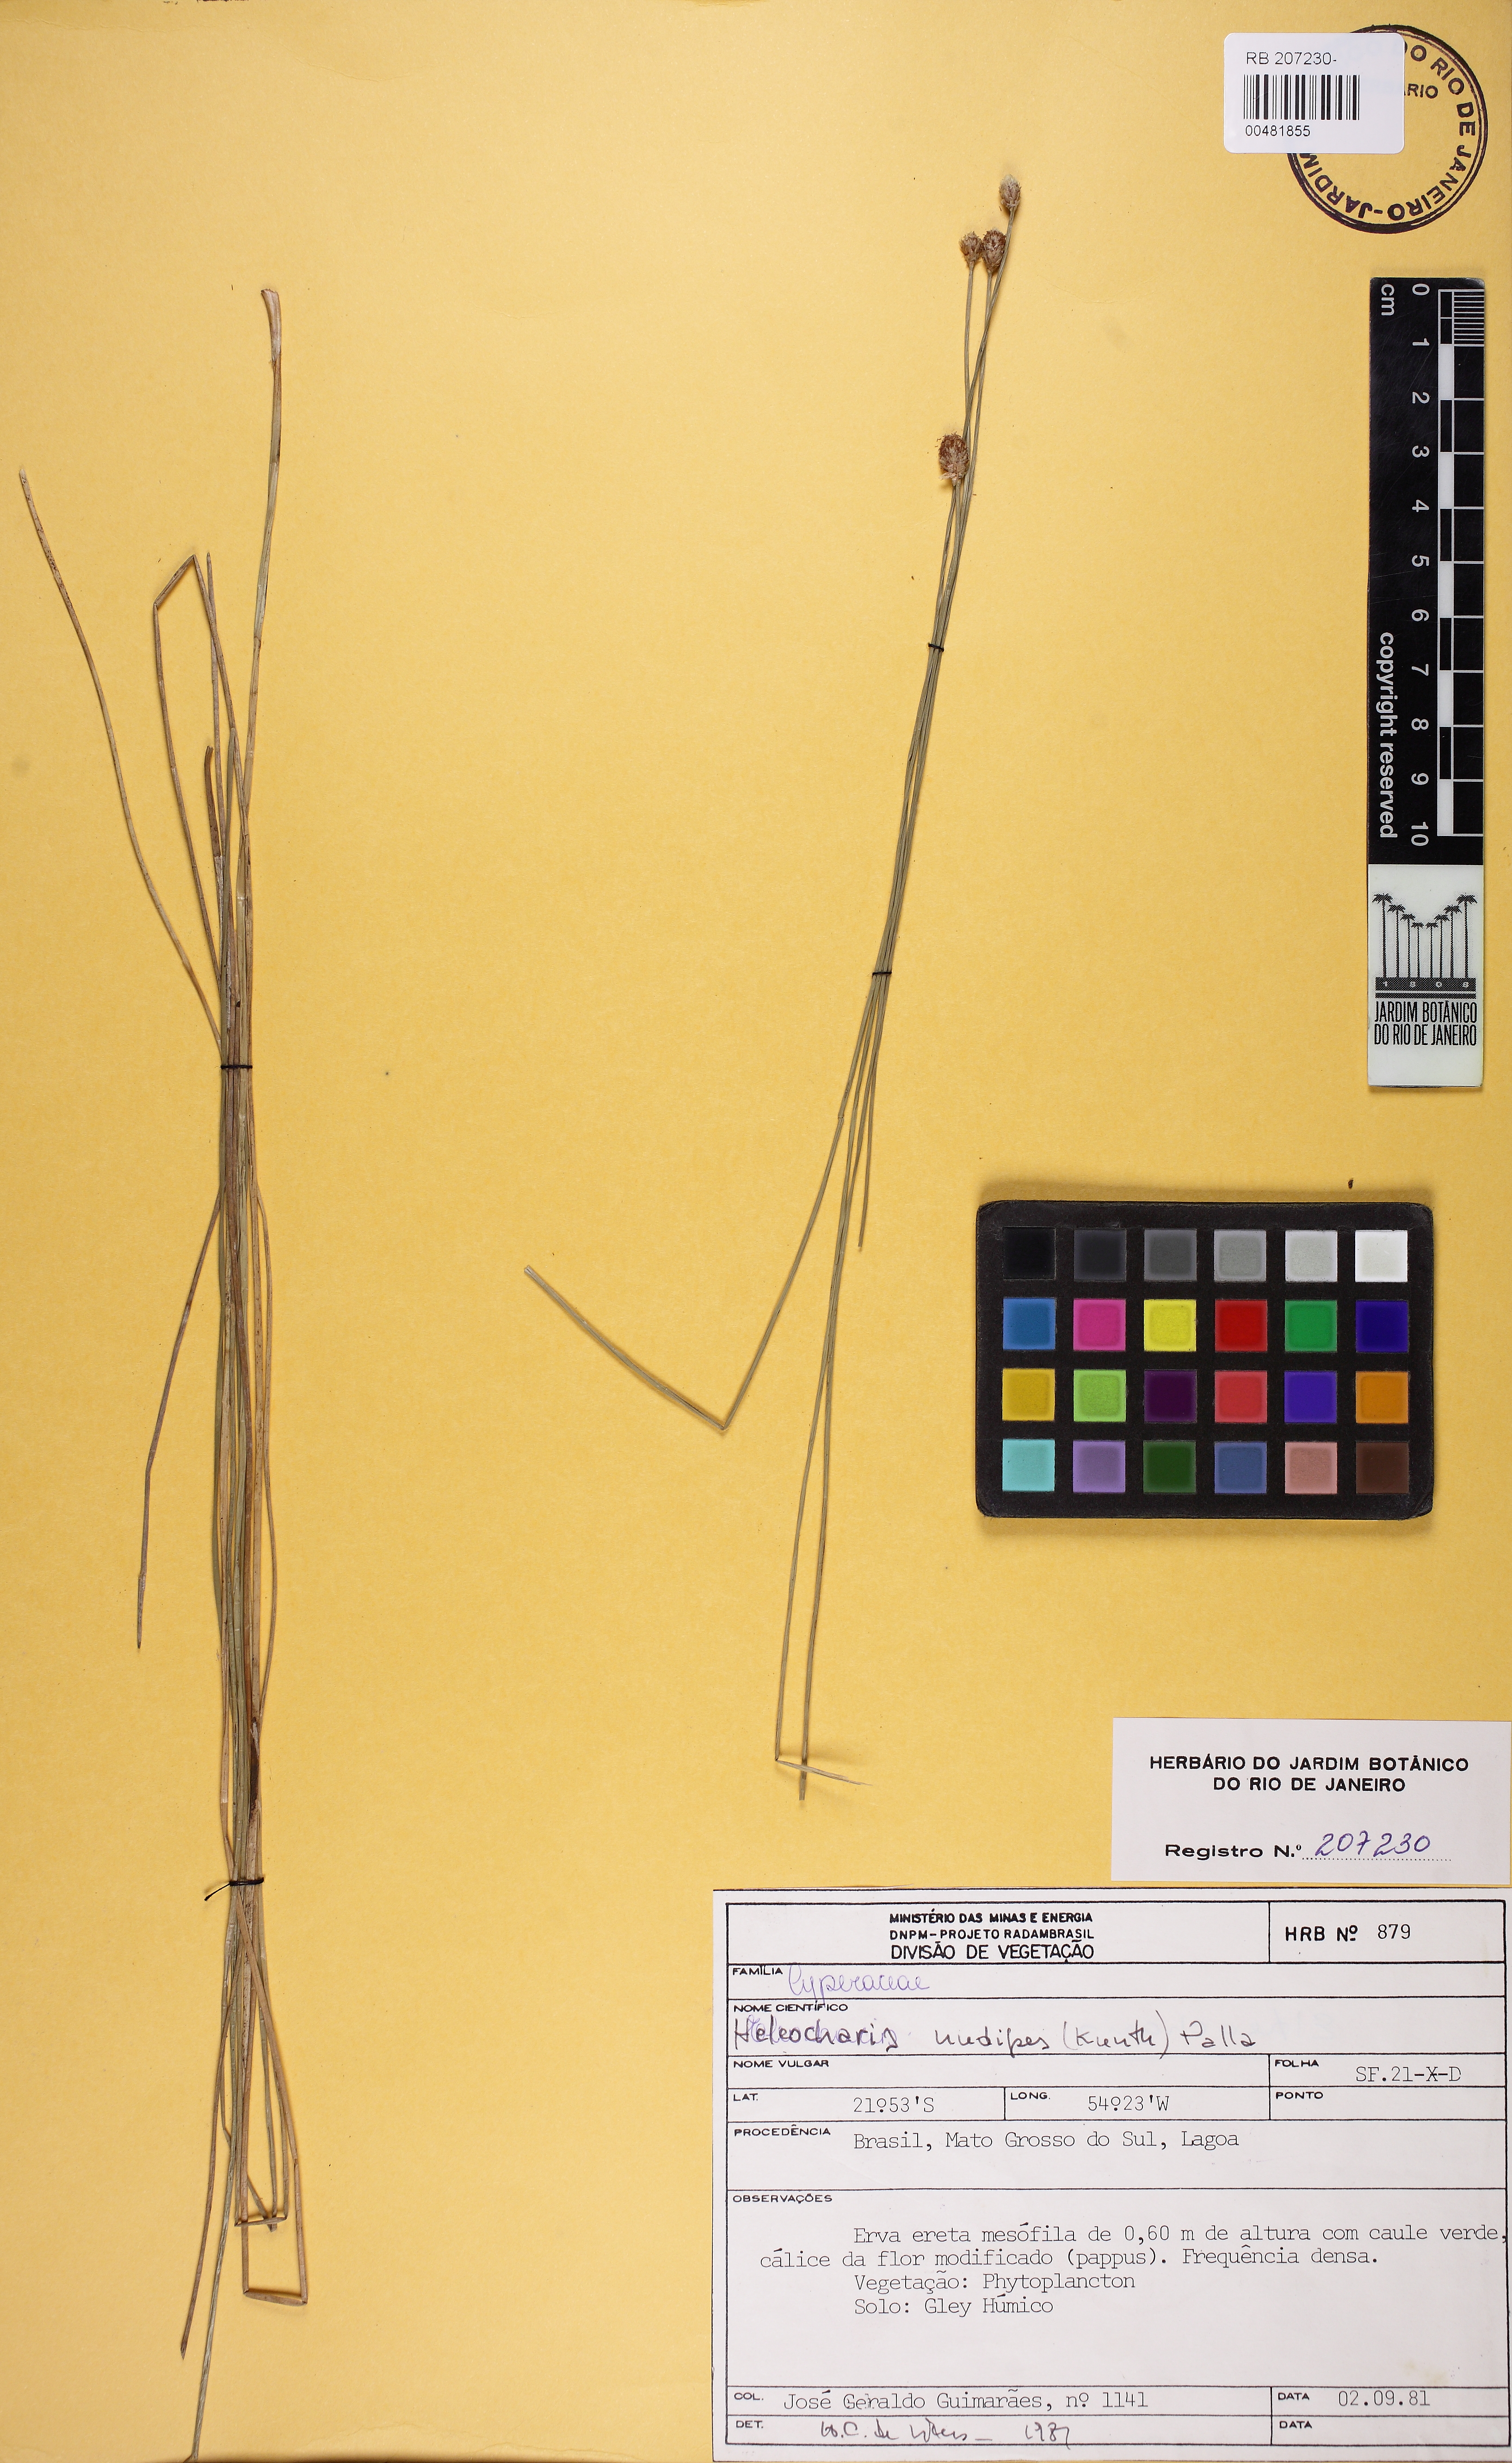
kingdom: Plantae
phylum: Tracheophyta
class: Liliopsida
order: Poales
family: Cyperaceae
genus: Eleocharis
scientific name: Eleocharis nudipes
